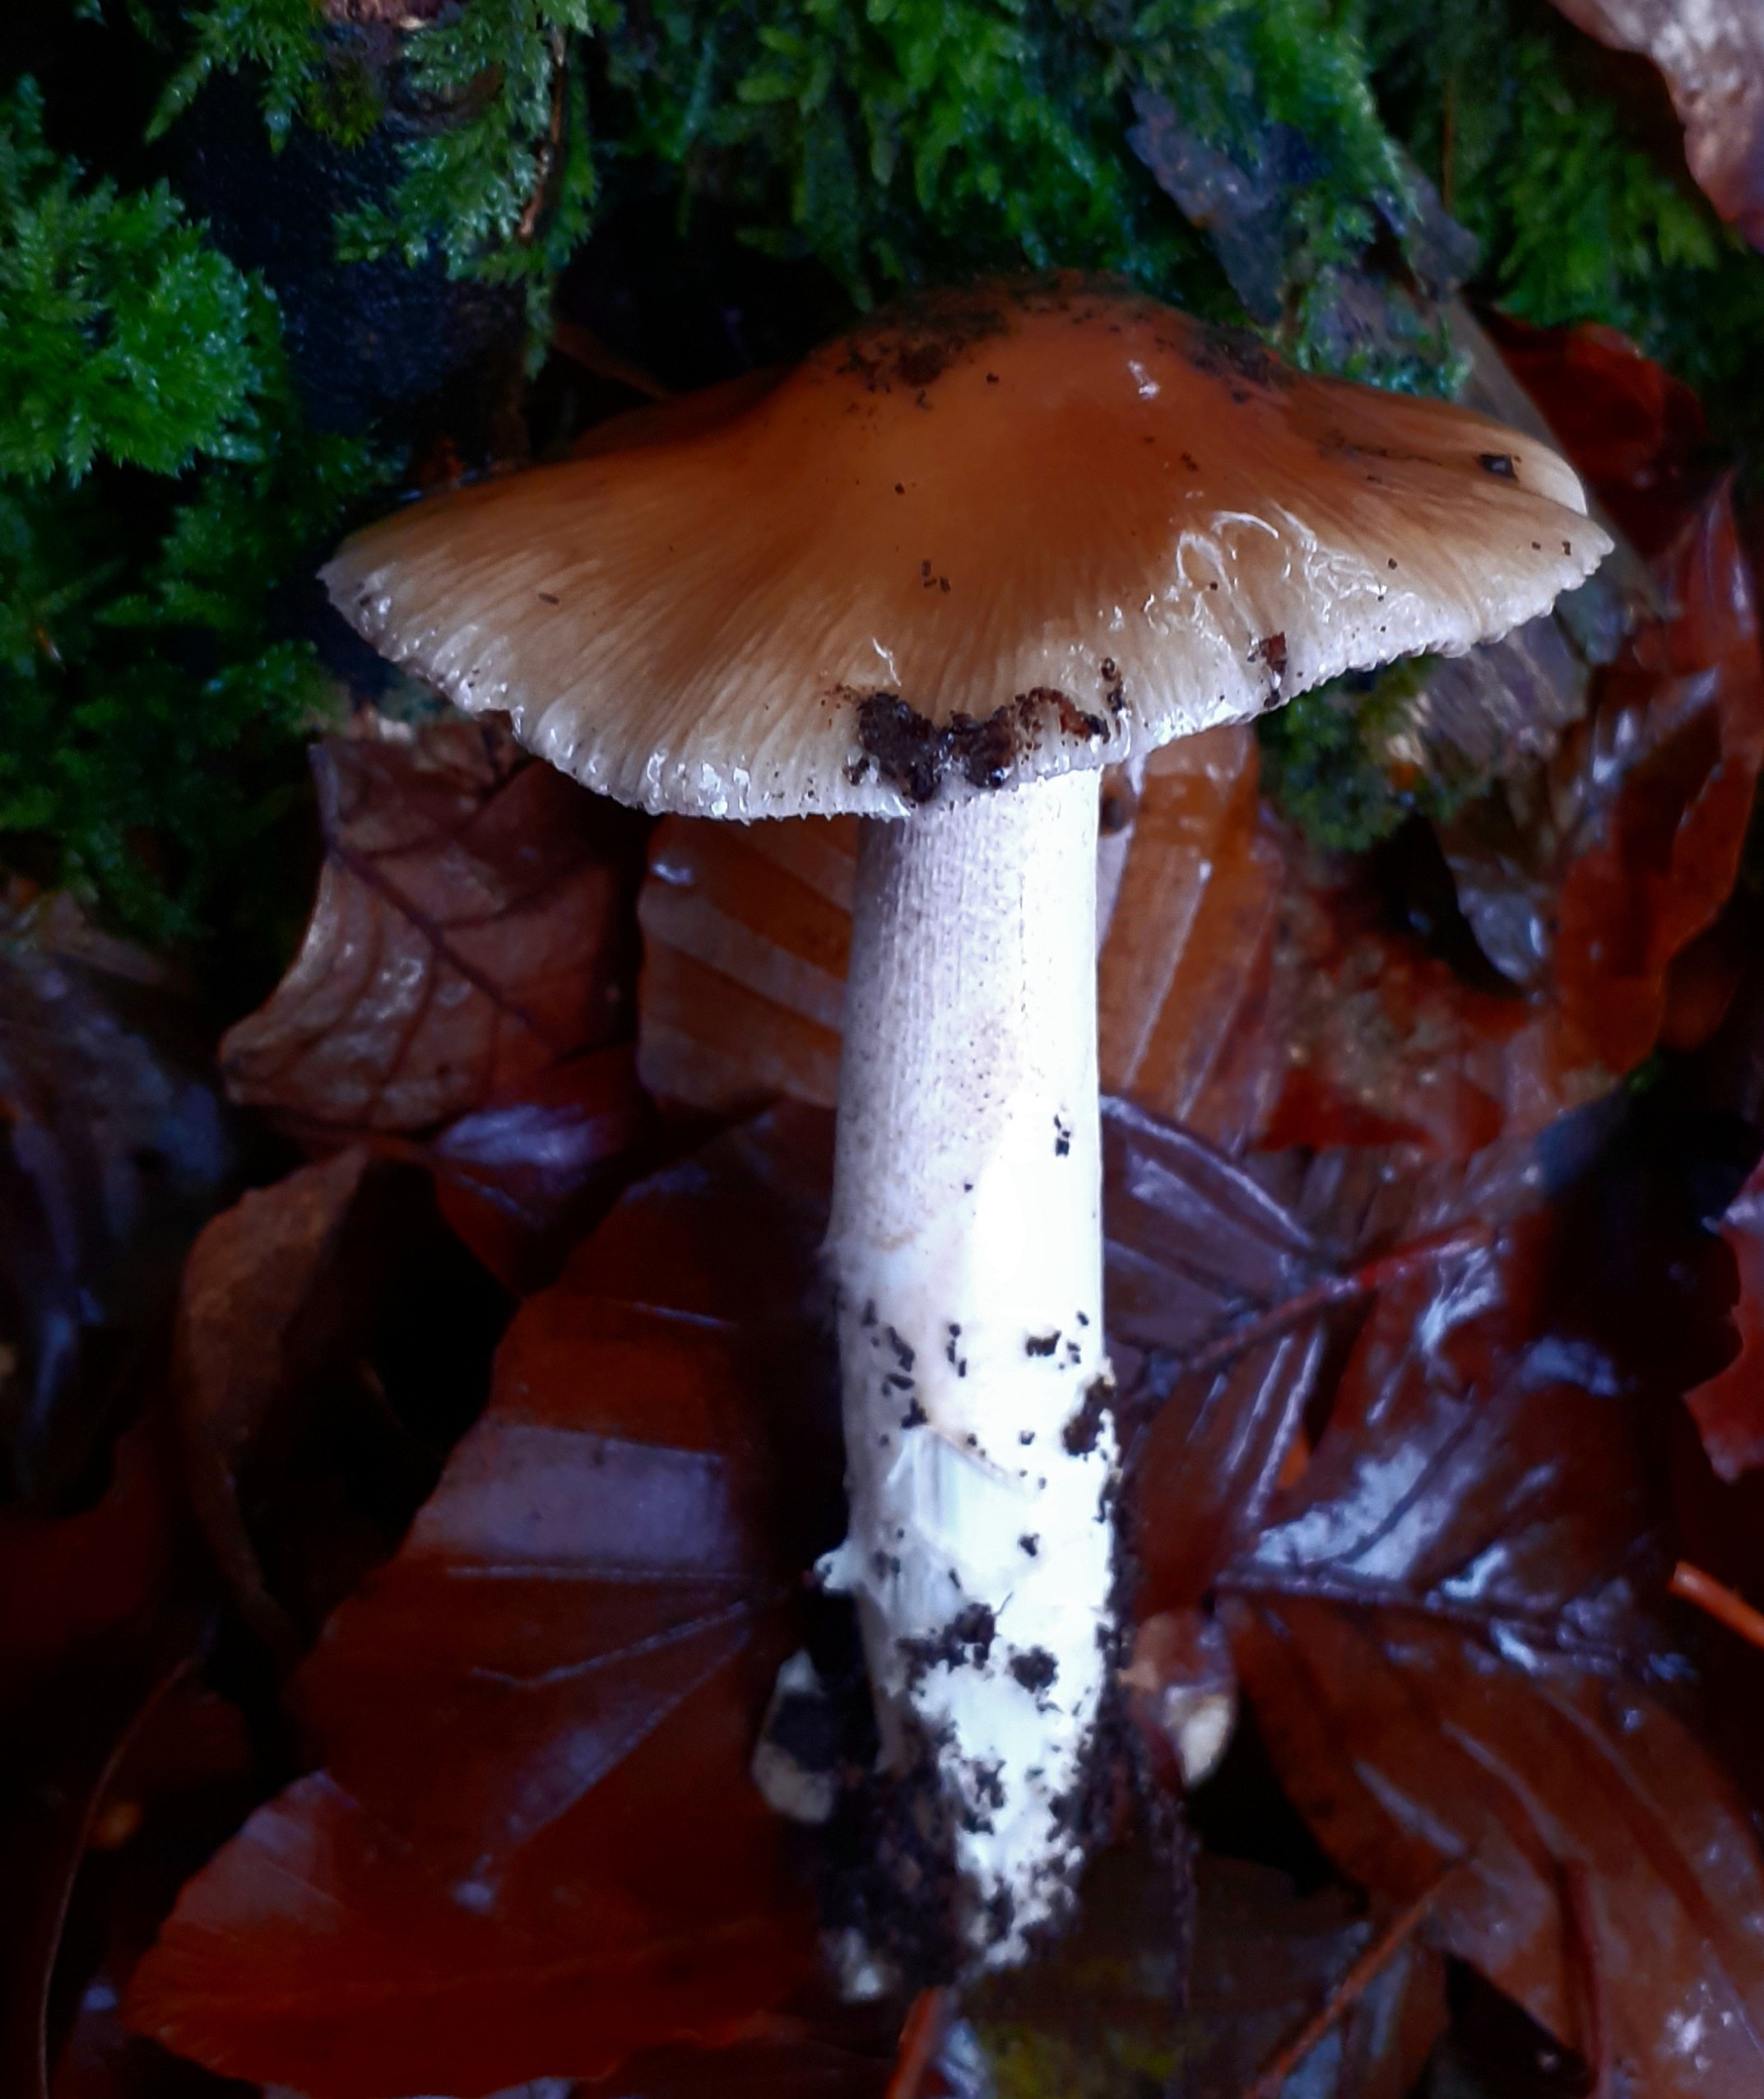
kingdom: Fungi
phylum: Basidiomycota
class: Agaricomycetes
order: Agaricales
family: Cortinariaceae
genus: Cortinarius
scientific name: Cortinarius elatior
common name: høj slørhat
